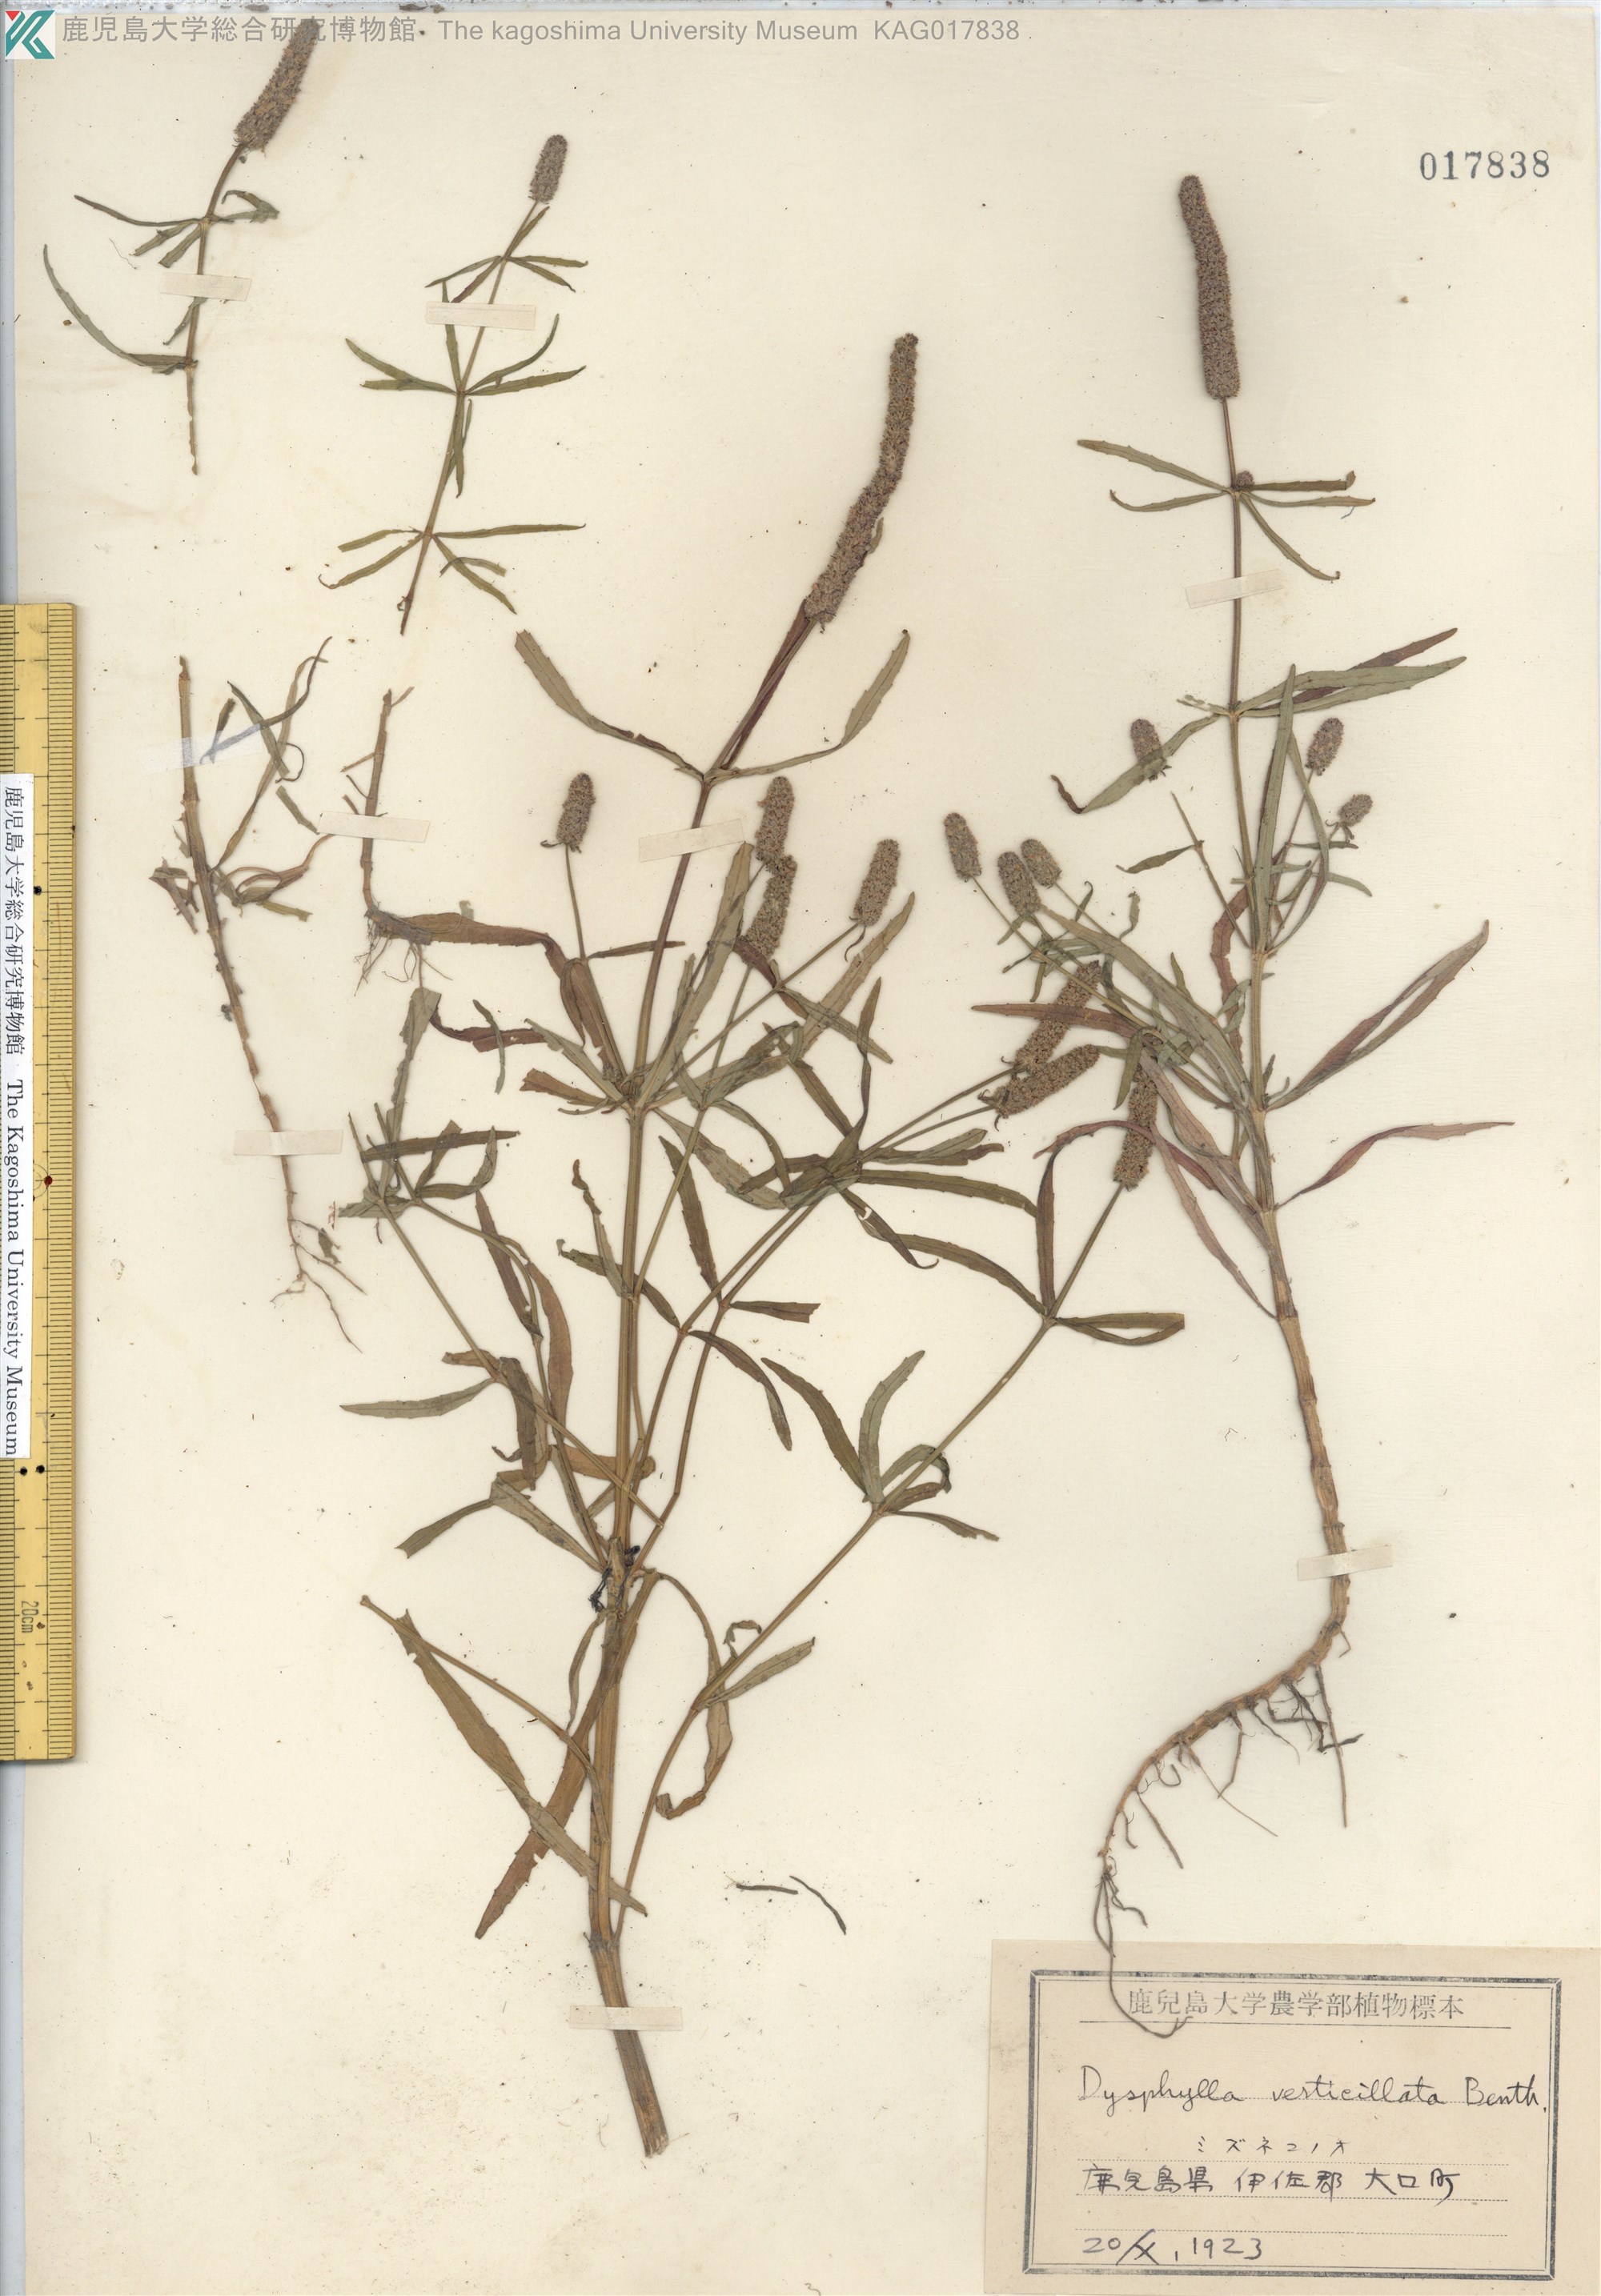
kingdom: Plantae
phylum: Tracheophyta
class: Magnoliopsida
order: Lamiales
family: Lamiaceae
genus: Pogostemon
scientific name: Pogostemon stellatus
